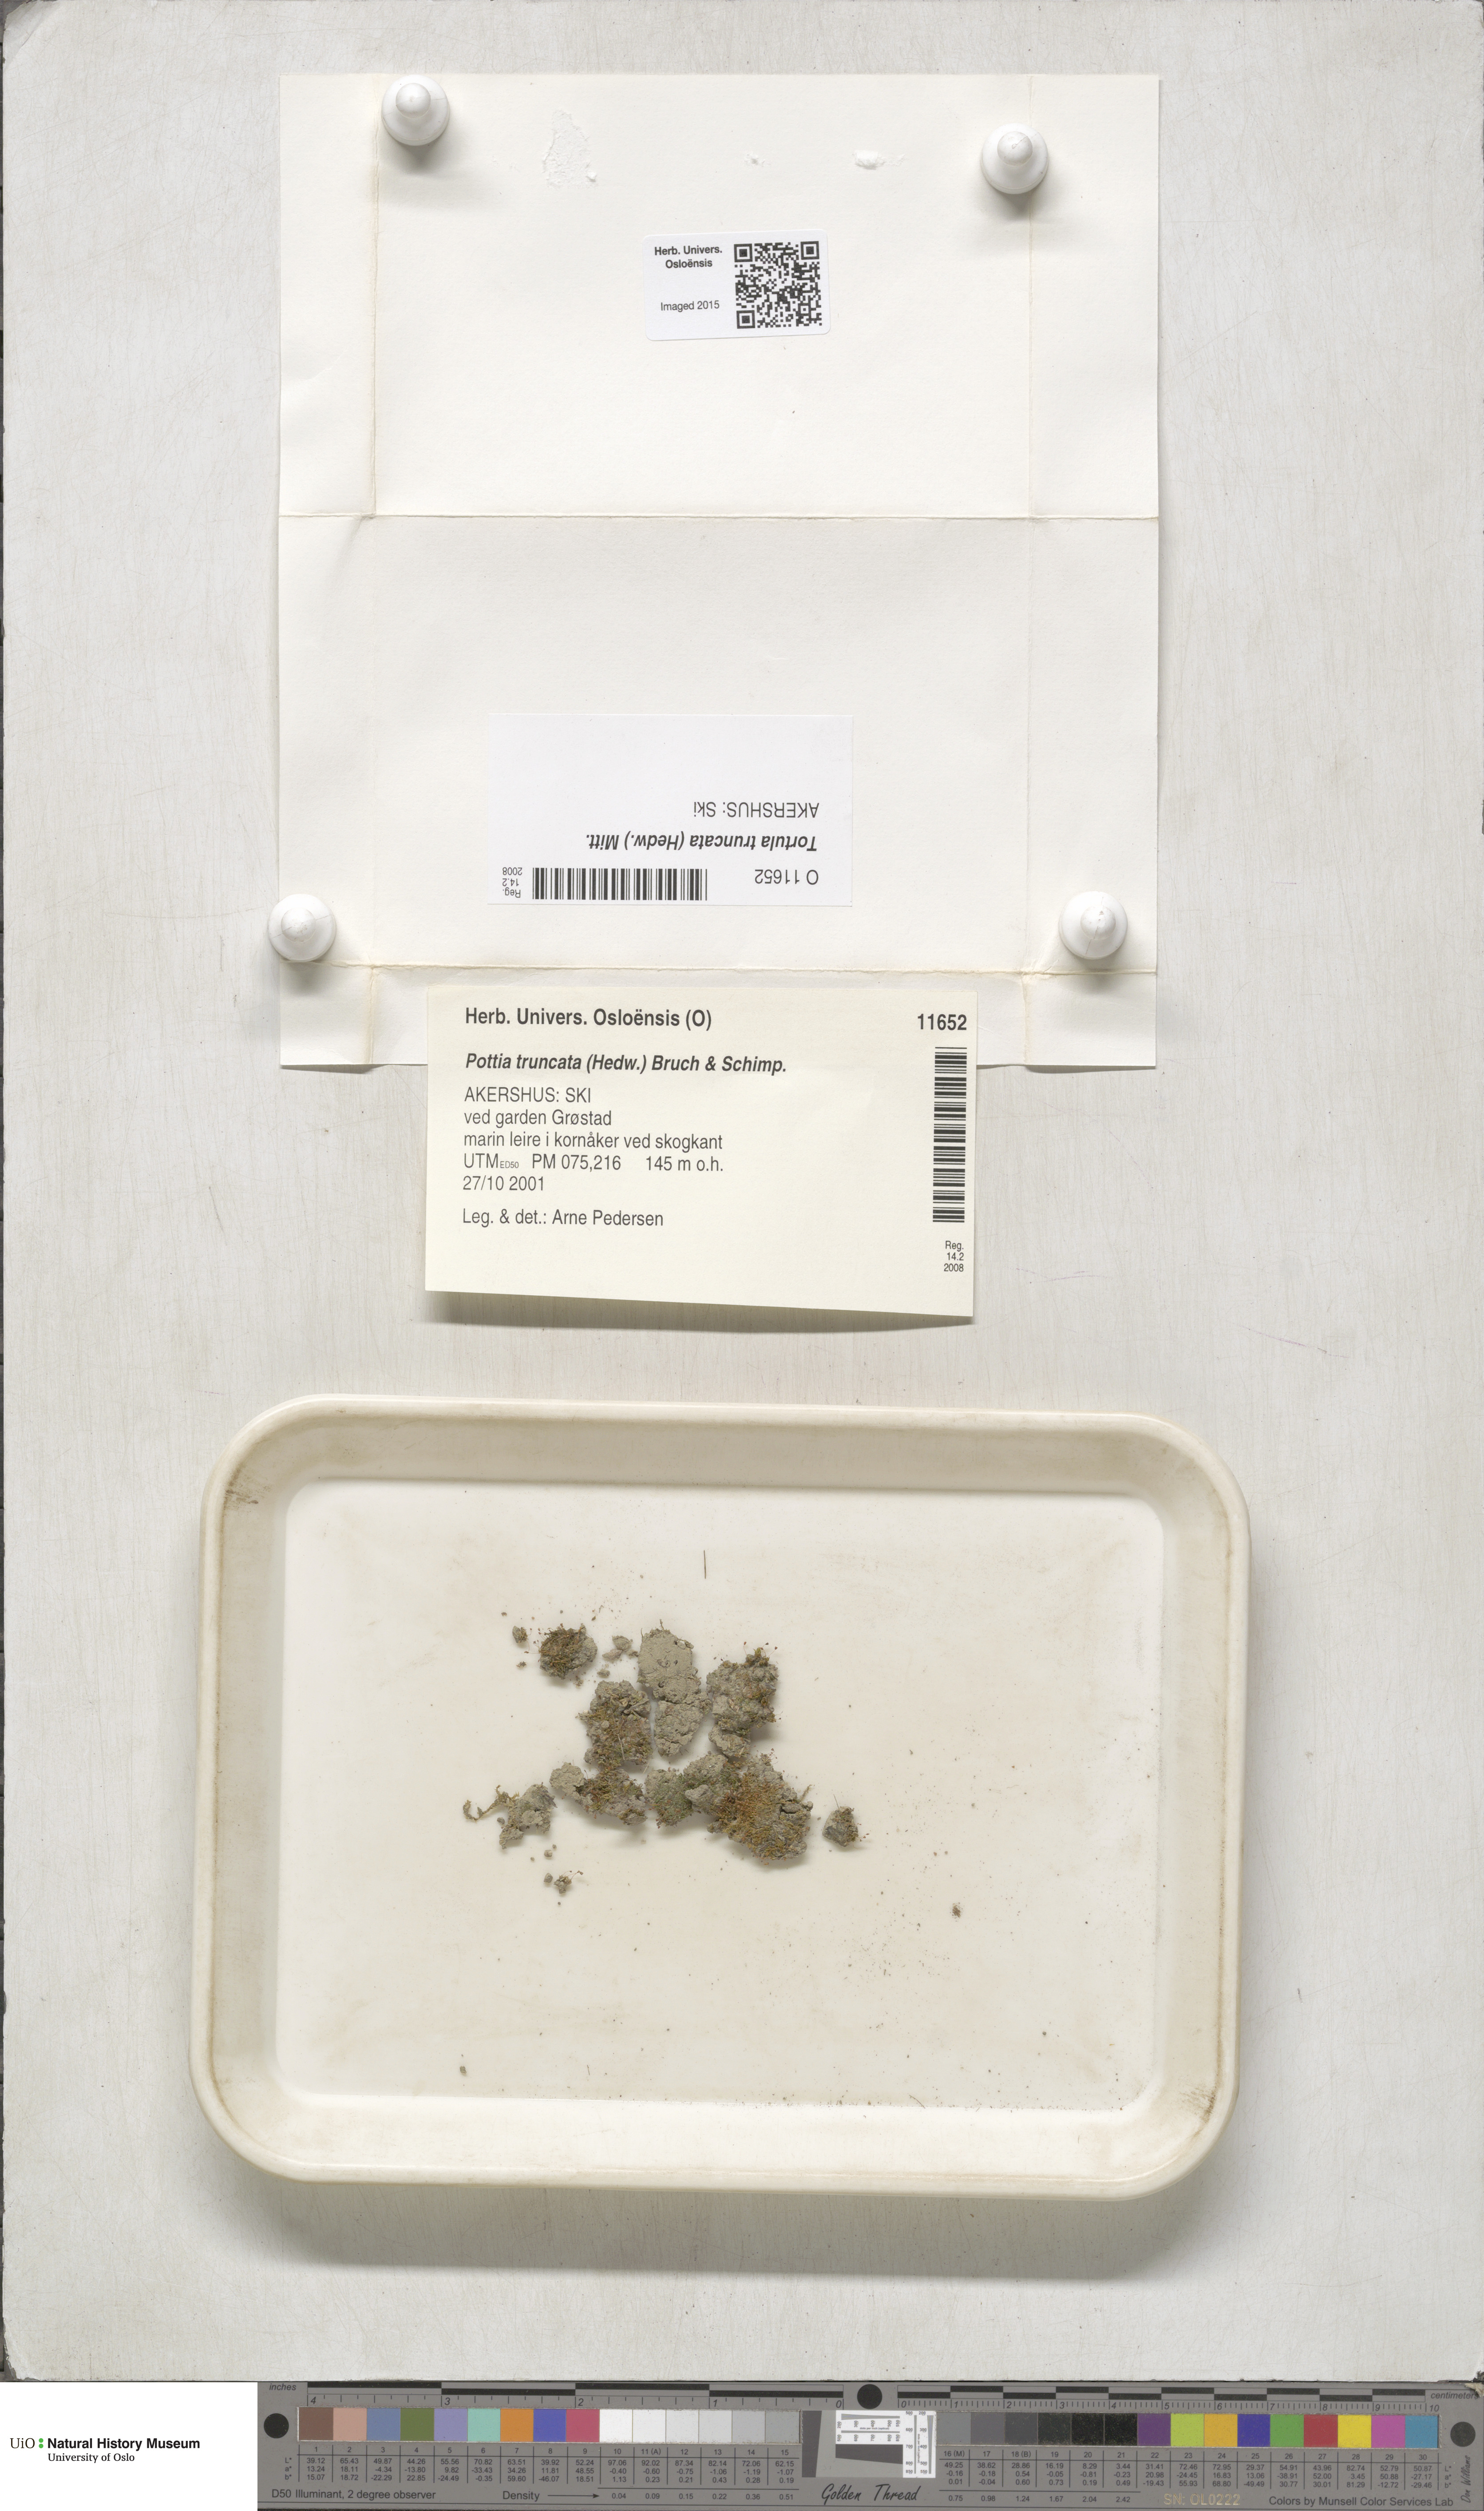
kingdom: Plantae
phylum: Bryophyta
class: Bryopsida
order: Pottiales
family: Pottiaceae
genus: Tortula
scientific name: Tortula truncata
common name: Truncated screw moss
